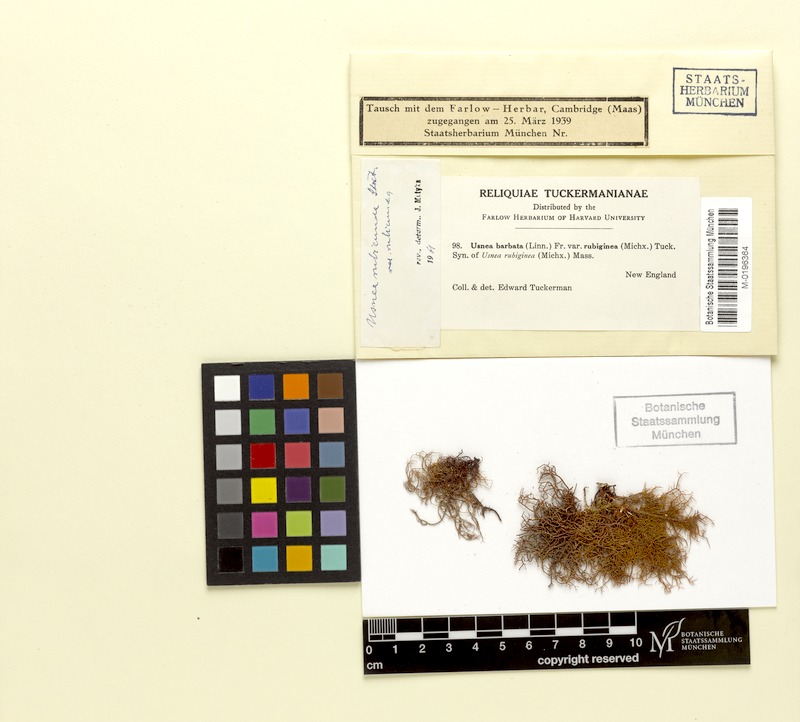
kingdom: Fungi
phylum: Ascomycota
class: Lecanoromycetes
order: Lecanorales
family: Parmeliaceae
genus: Usnea
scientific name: Usnea rubicunda
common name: Red beard lichen
